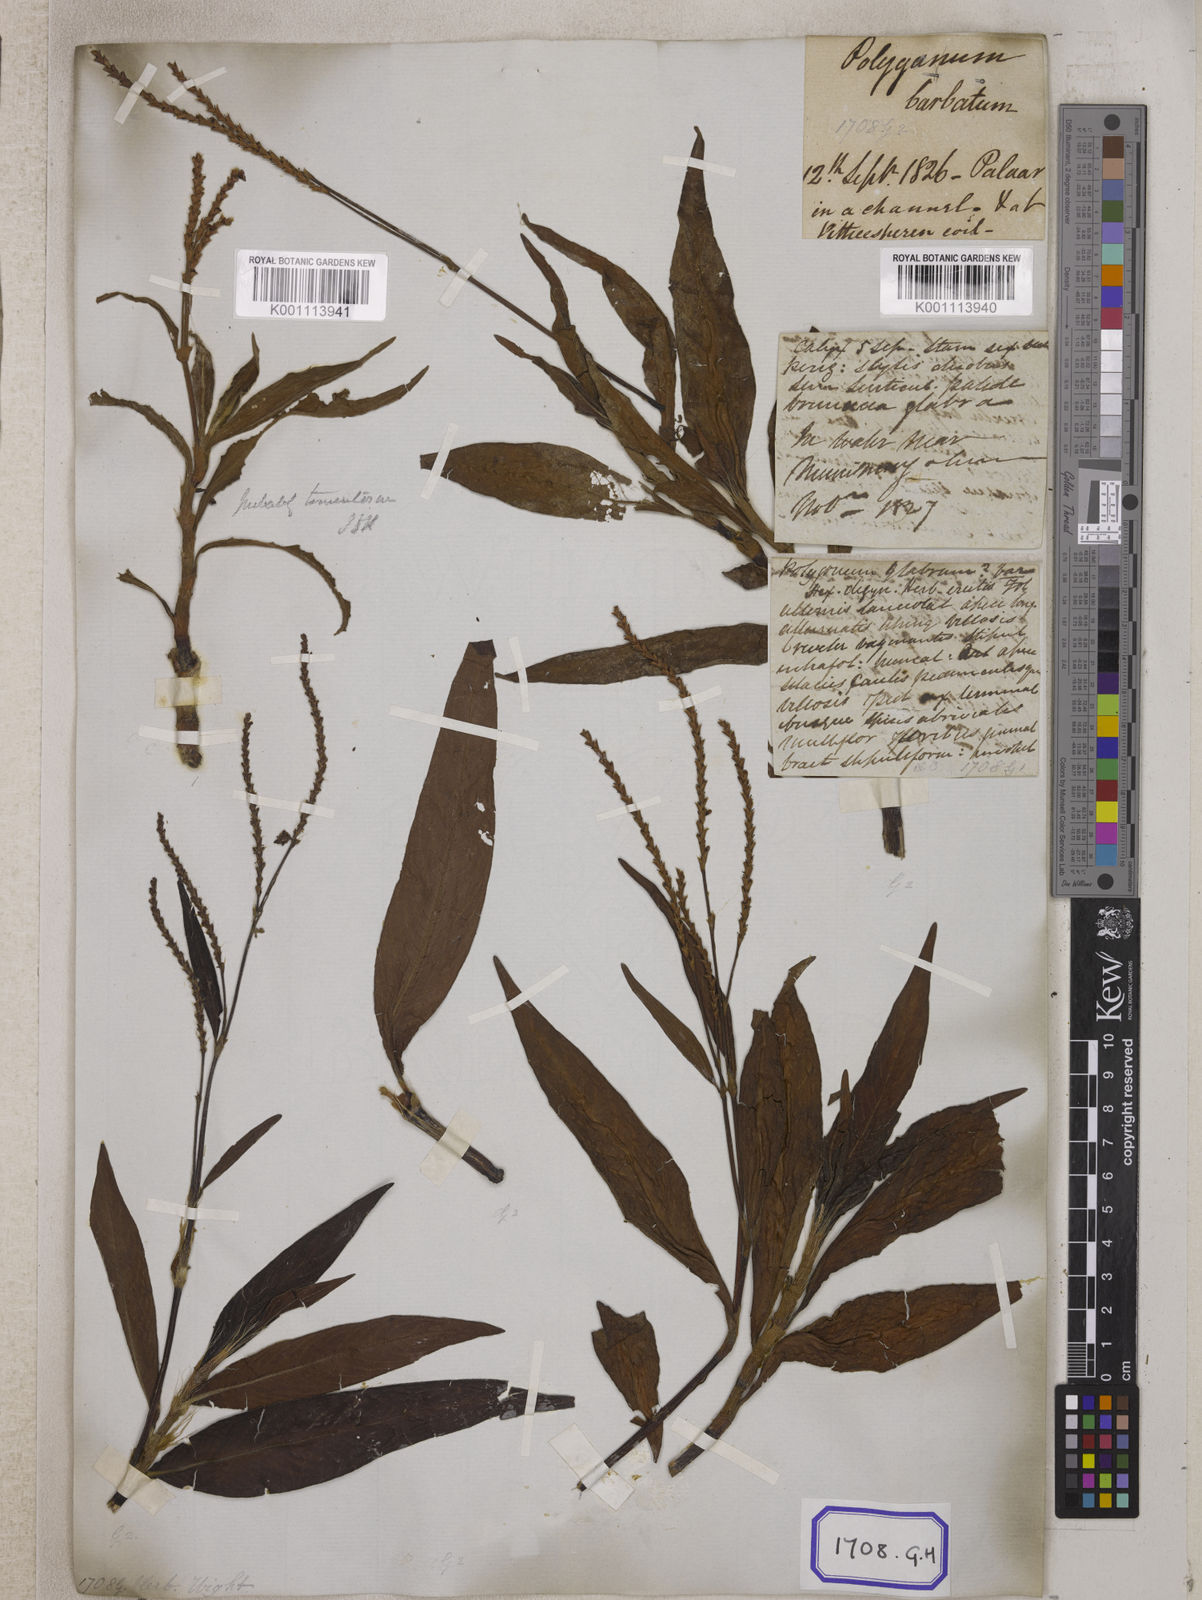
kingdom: Plantae
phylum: Tracheophyta
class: Magnoliopsida
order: Caryophyllales
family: Polygonaceae
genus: Persicaria
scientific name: Persicaria barbata
